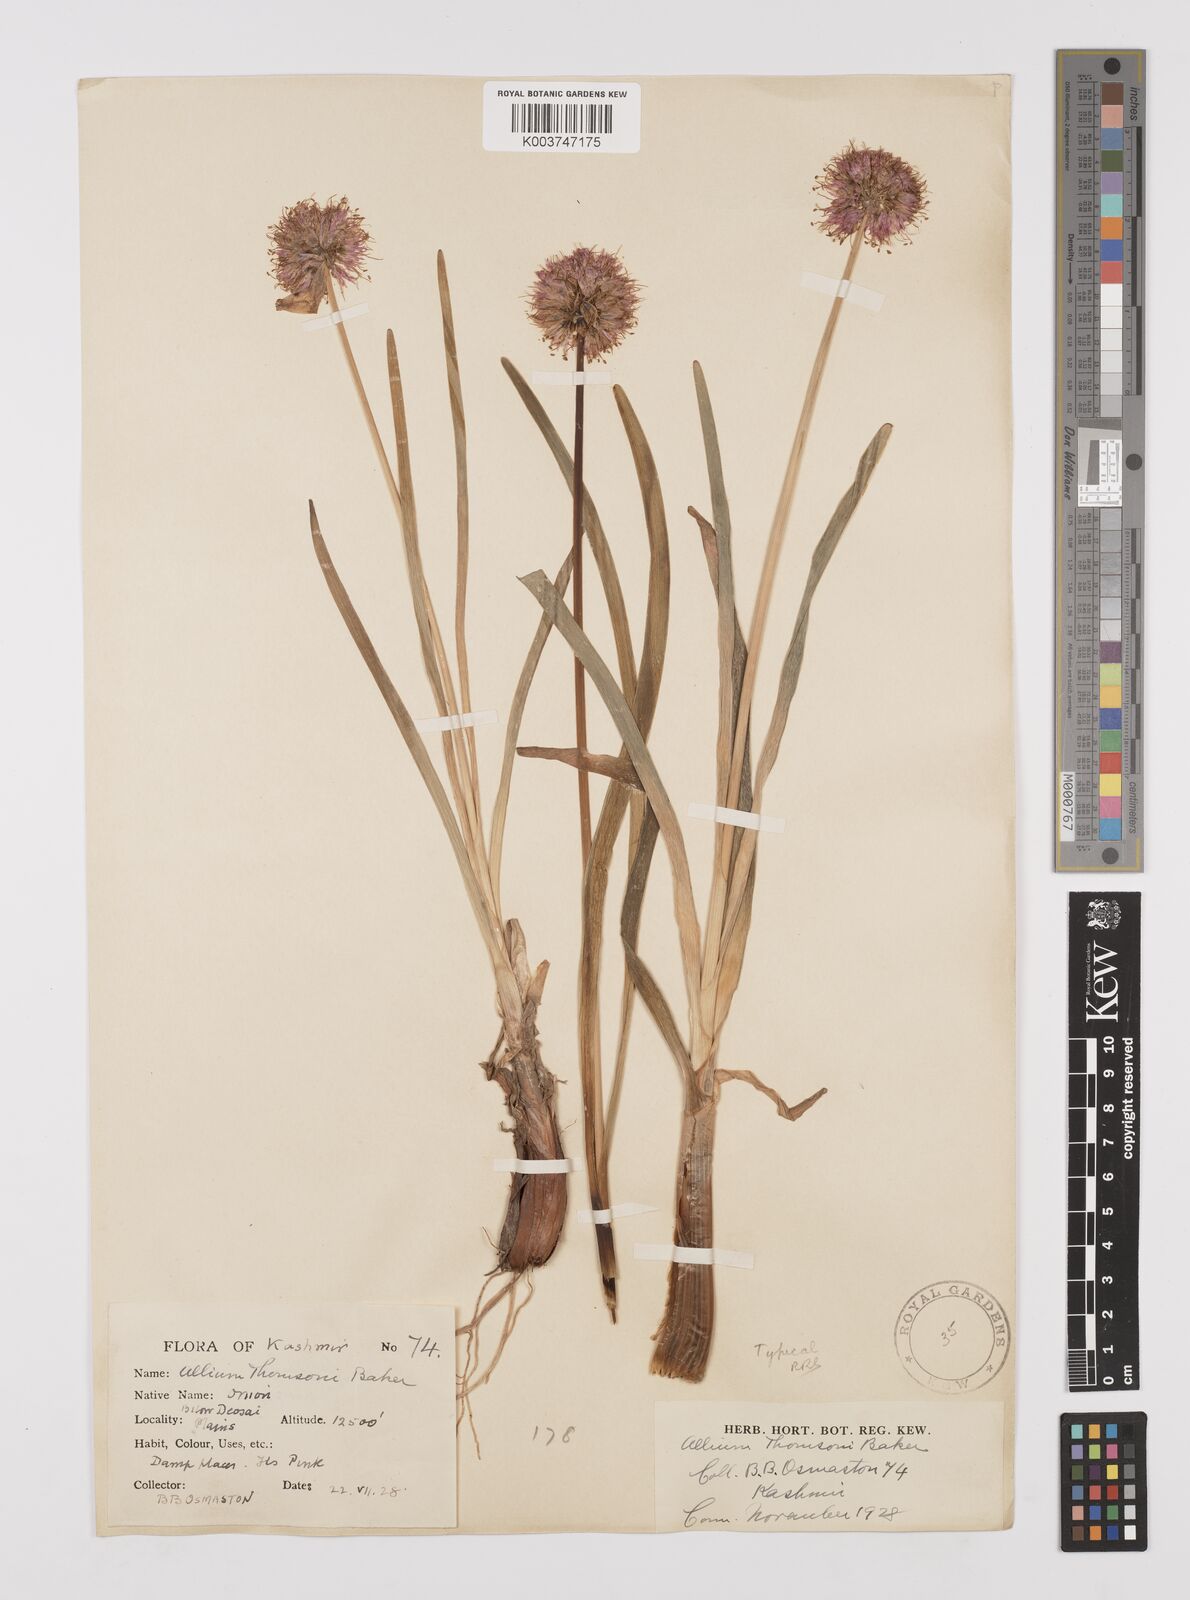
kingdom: Plantae
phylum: Tracheophyta
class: Liliopsida
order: Asparagales
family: Amaryllidaceae
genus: Allium
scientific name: Allium carolinianum
